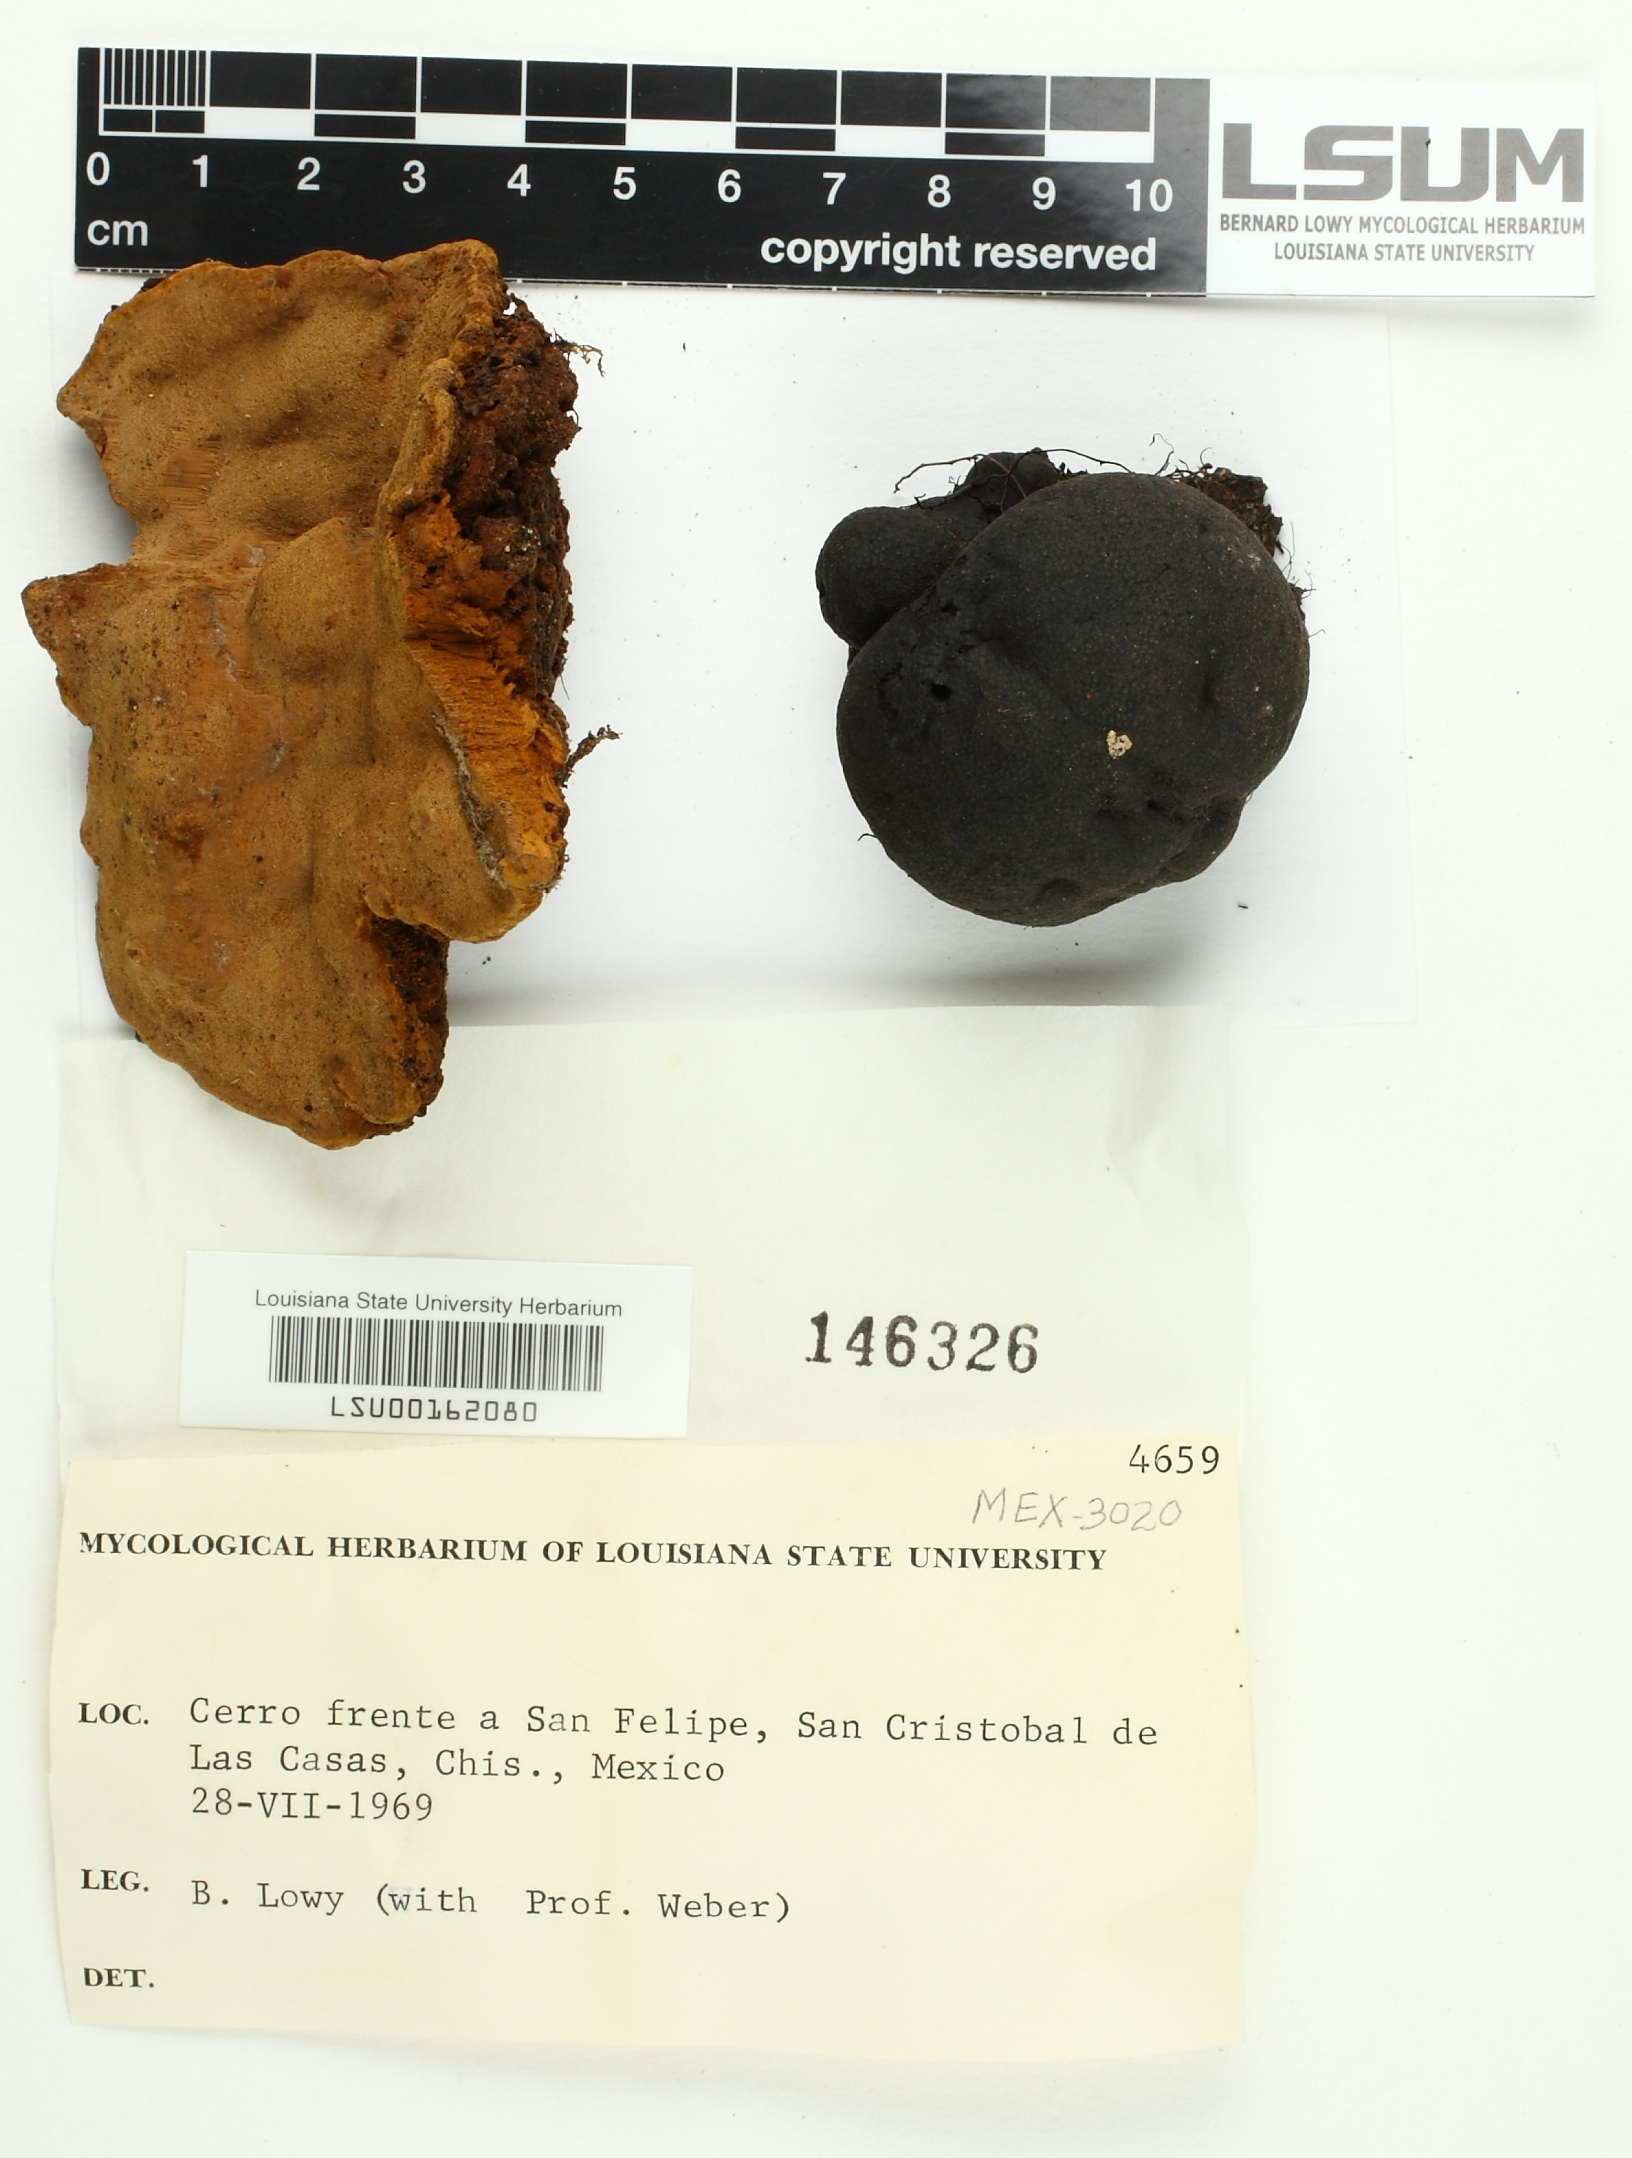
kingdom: Fungi
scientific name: Fungi
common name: Fungi
